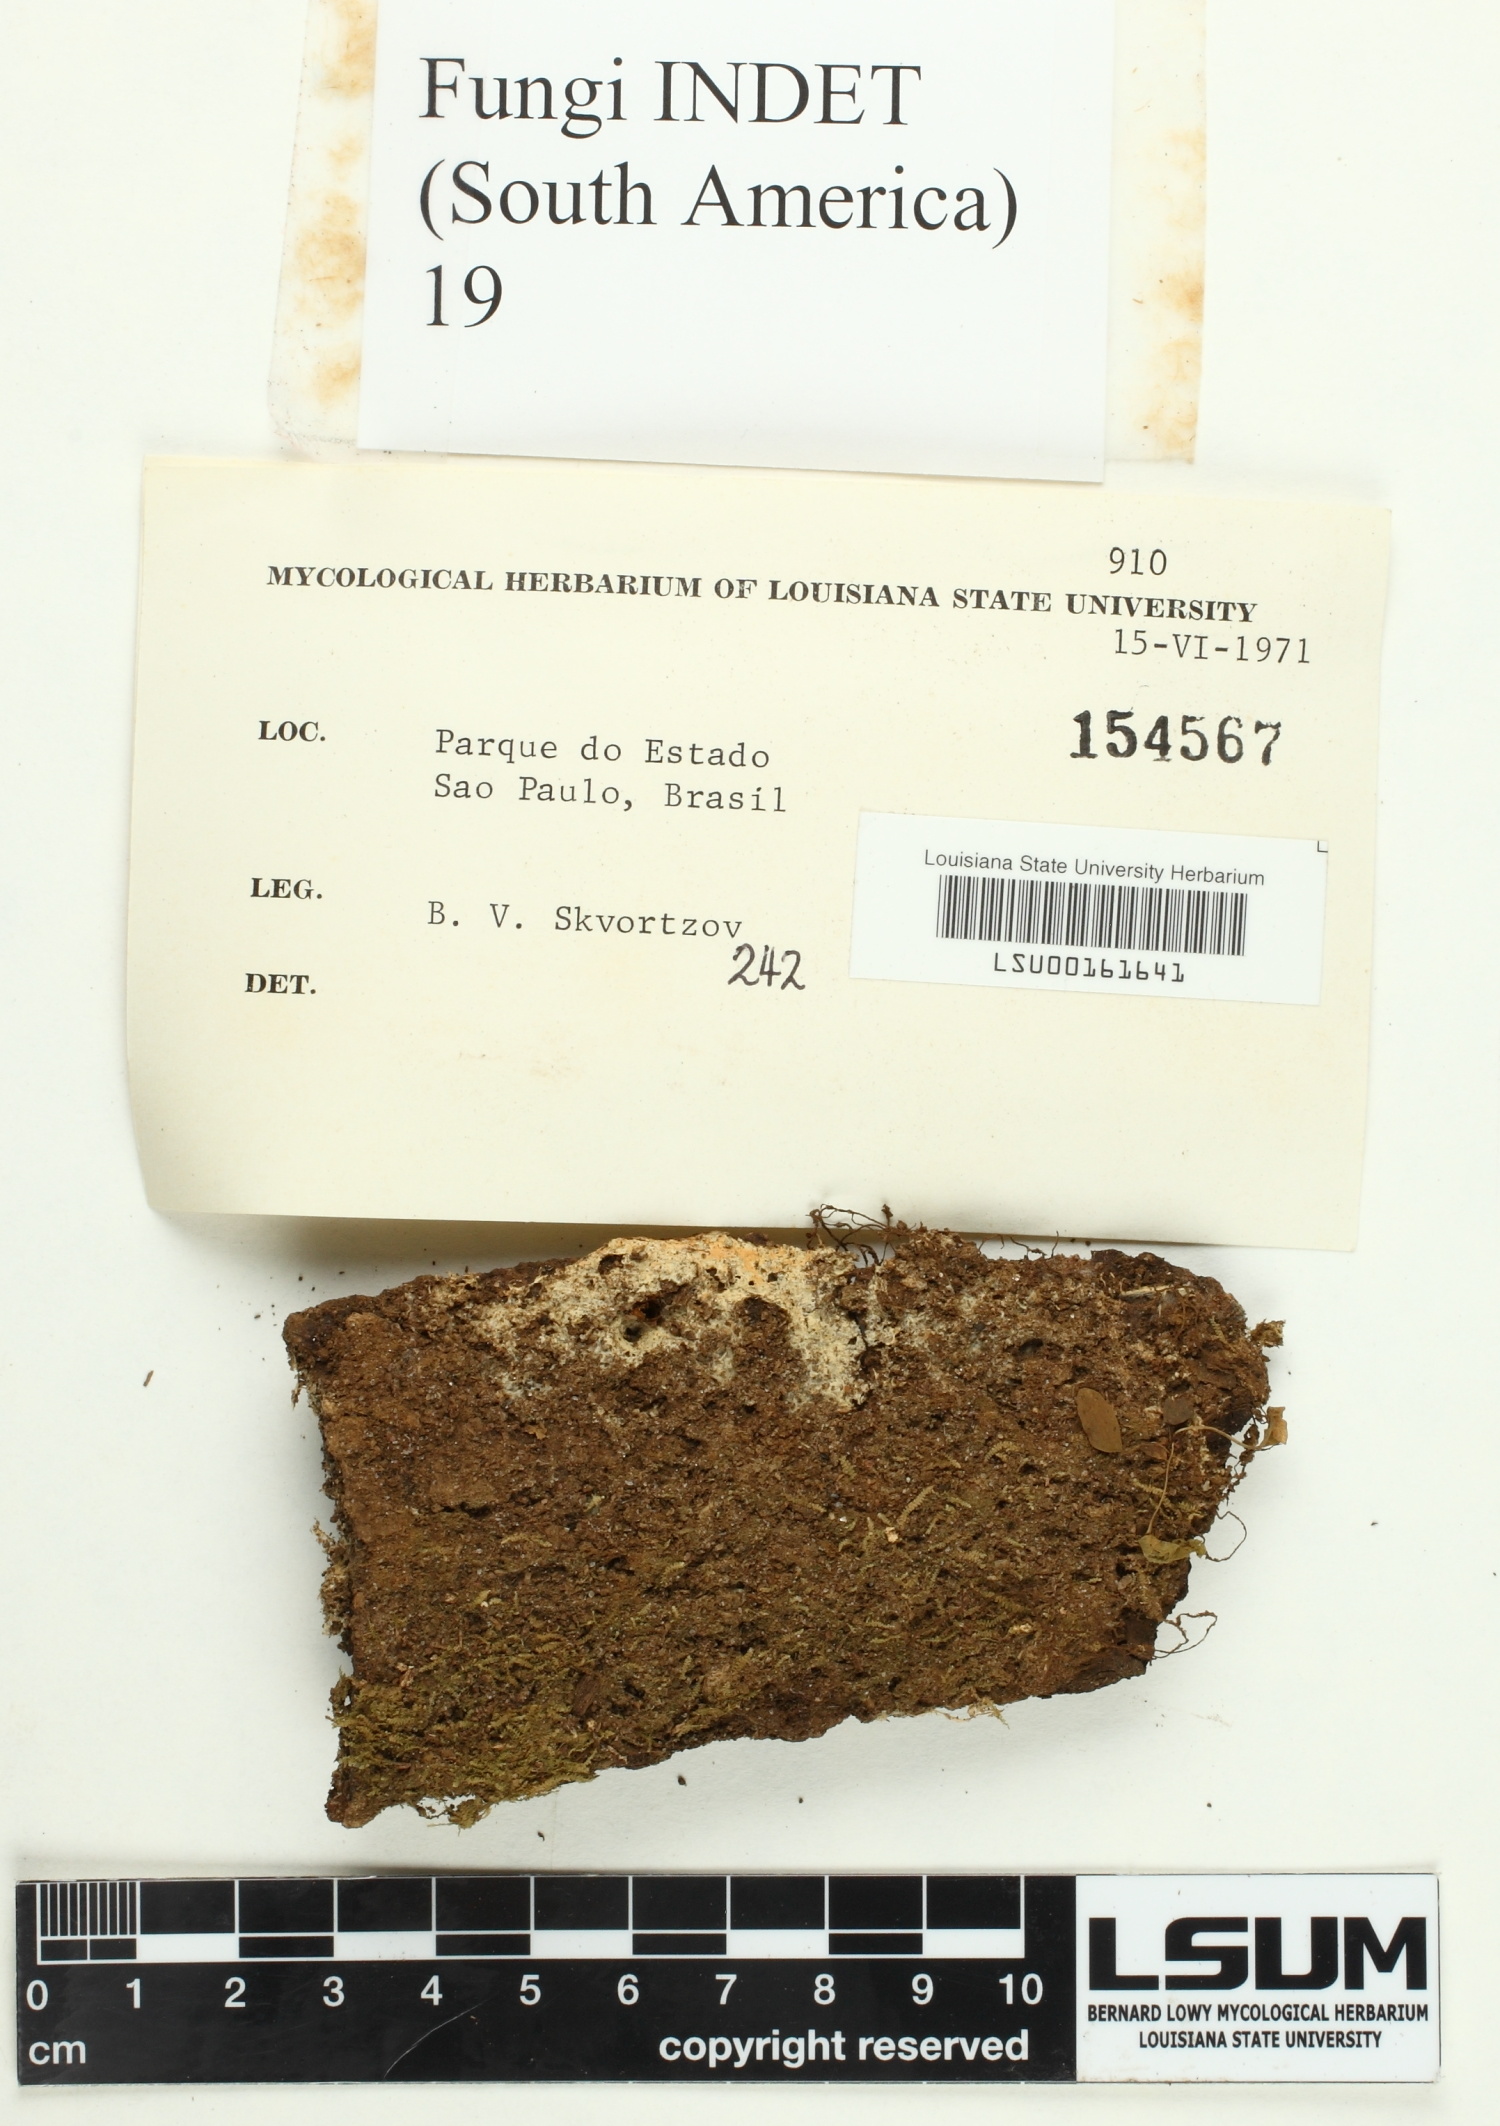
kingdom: Fungi
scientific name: Fungi
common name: Fungi
